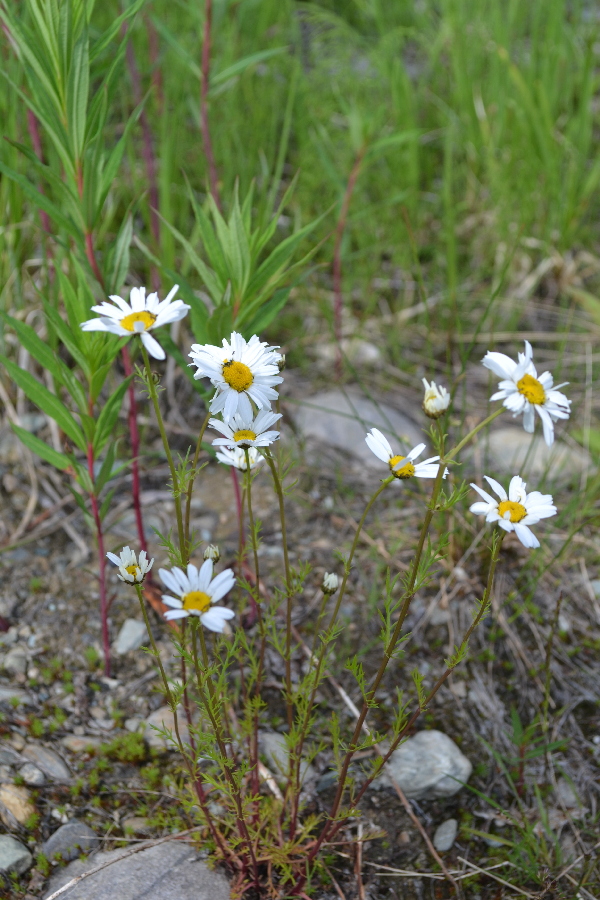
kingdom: Plantae
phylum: Tracheophyta
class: Magnoliopsida
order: Asterales
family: Asteraceae
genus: Tripleurospermum
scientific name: Tripleurospermum hookeri
